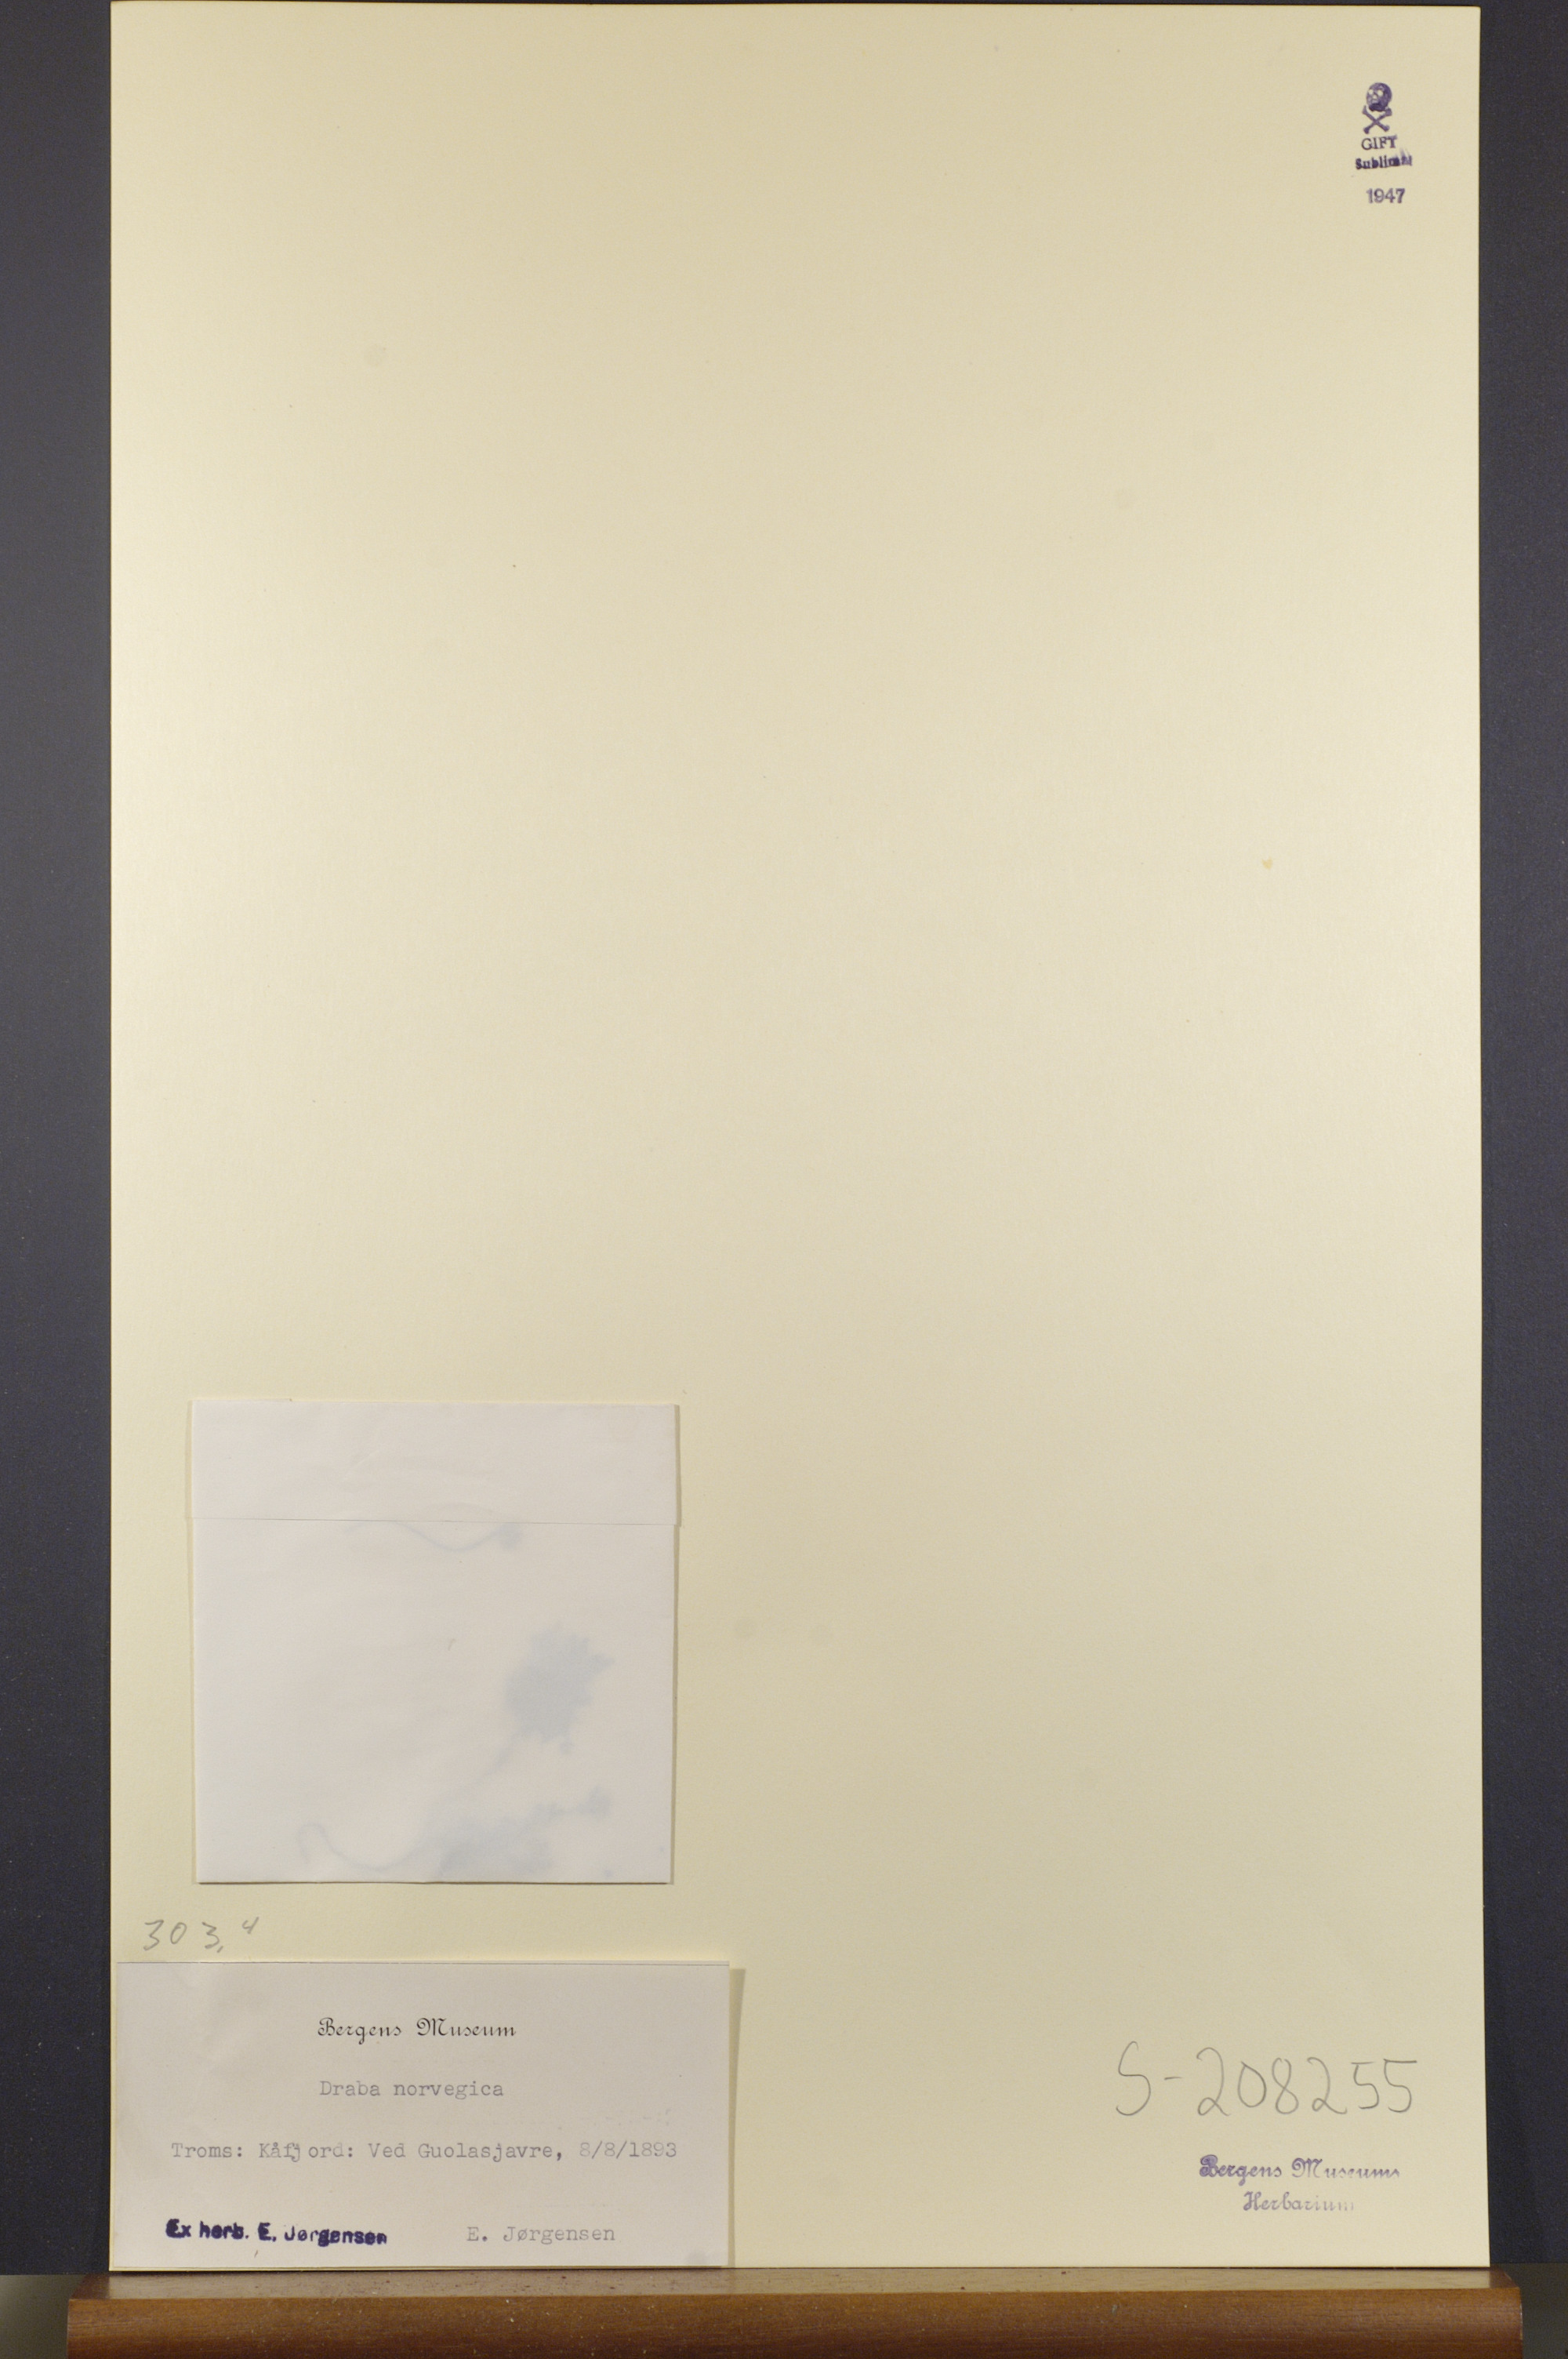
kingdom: Plantae
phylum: Tracheophyta
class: Magnoliopsida
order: Brassicales
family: Brassicaceae
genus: Draba
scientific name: Draba norvegica
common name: Rock whitlowgrass
